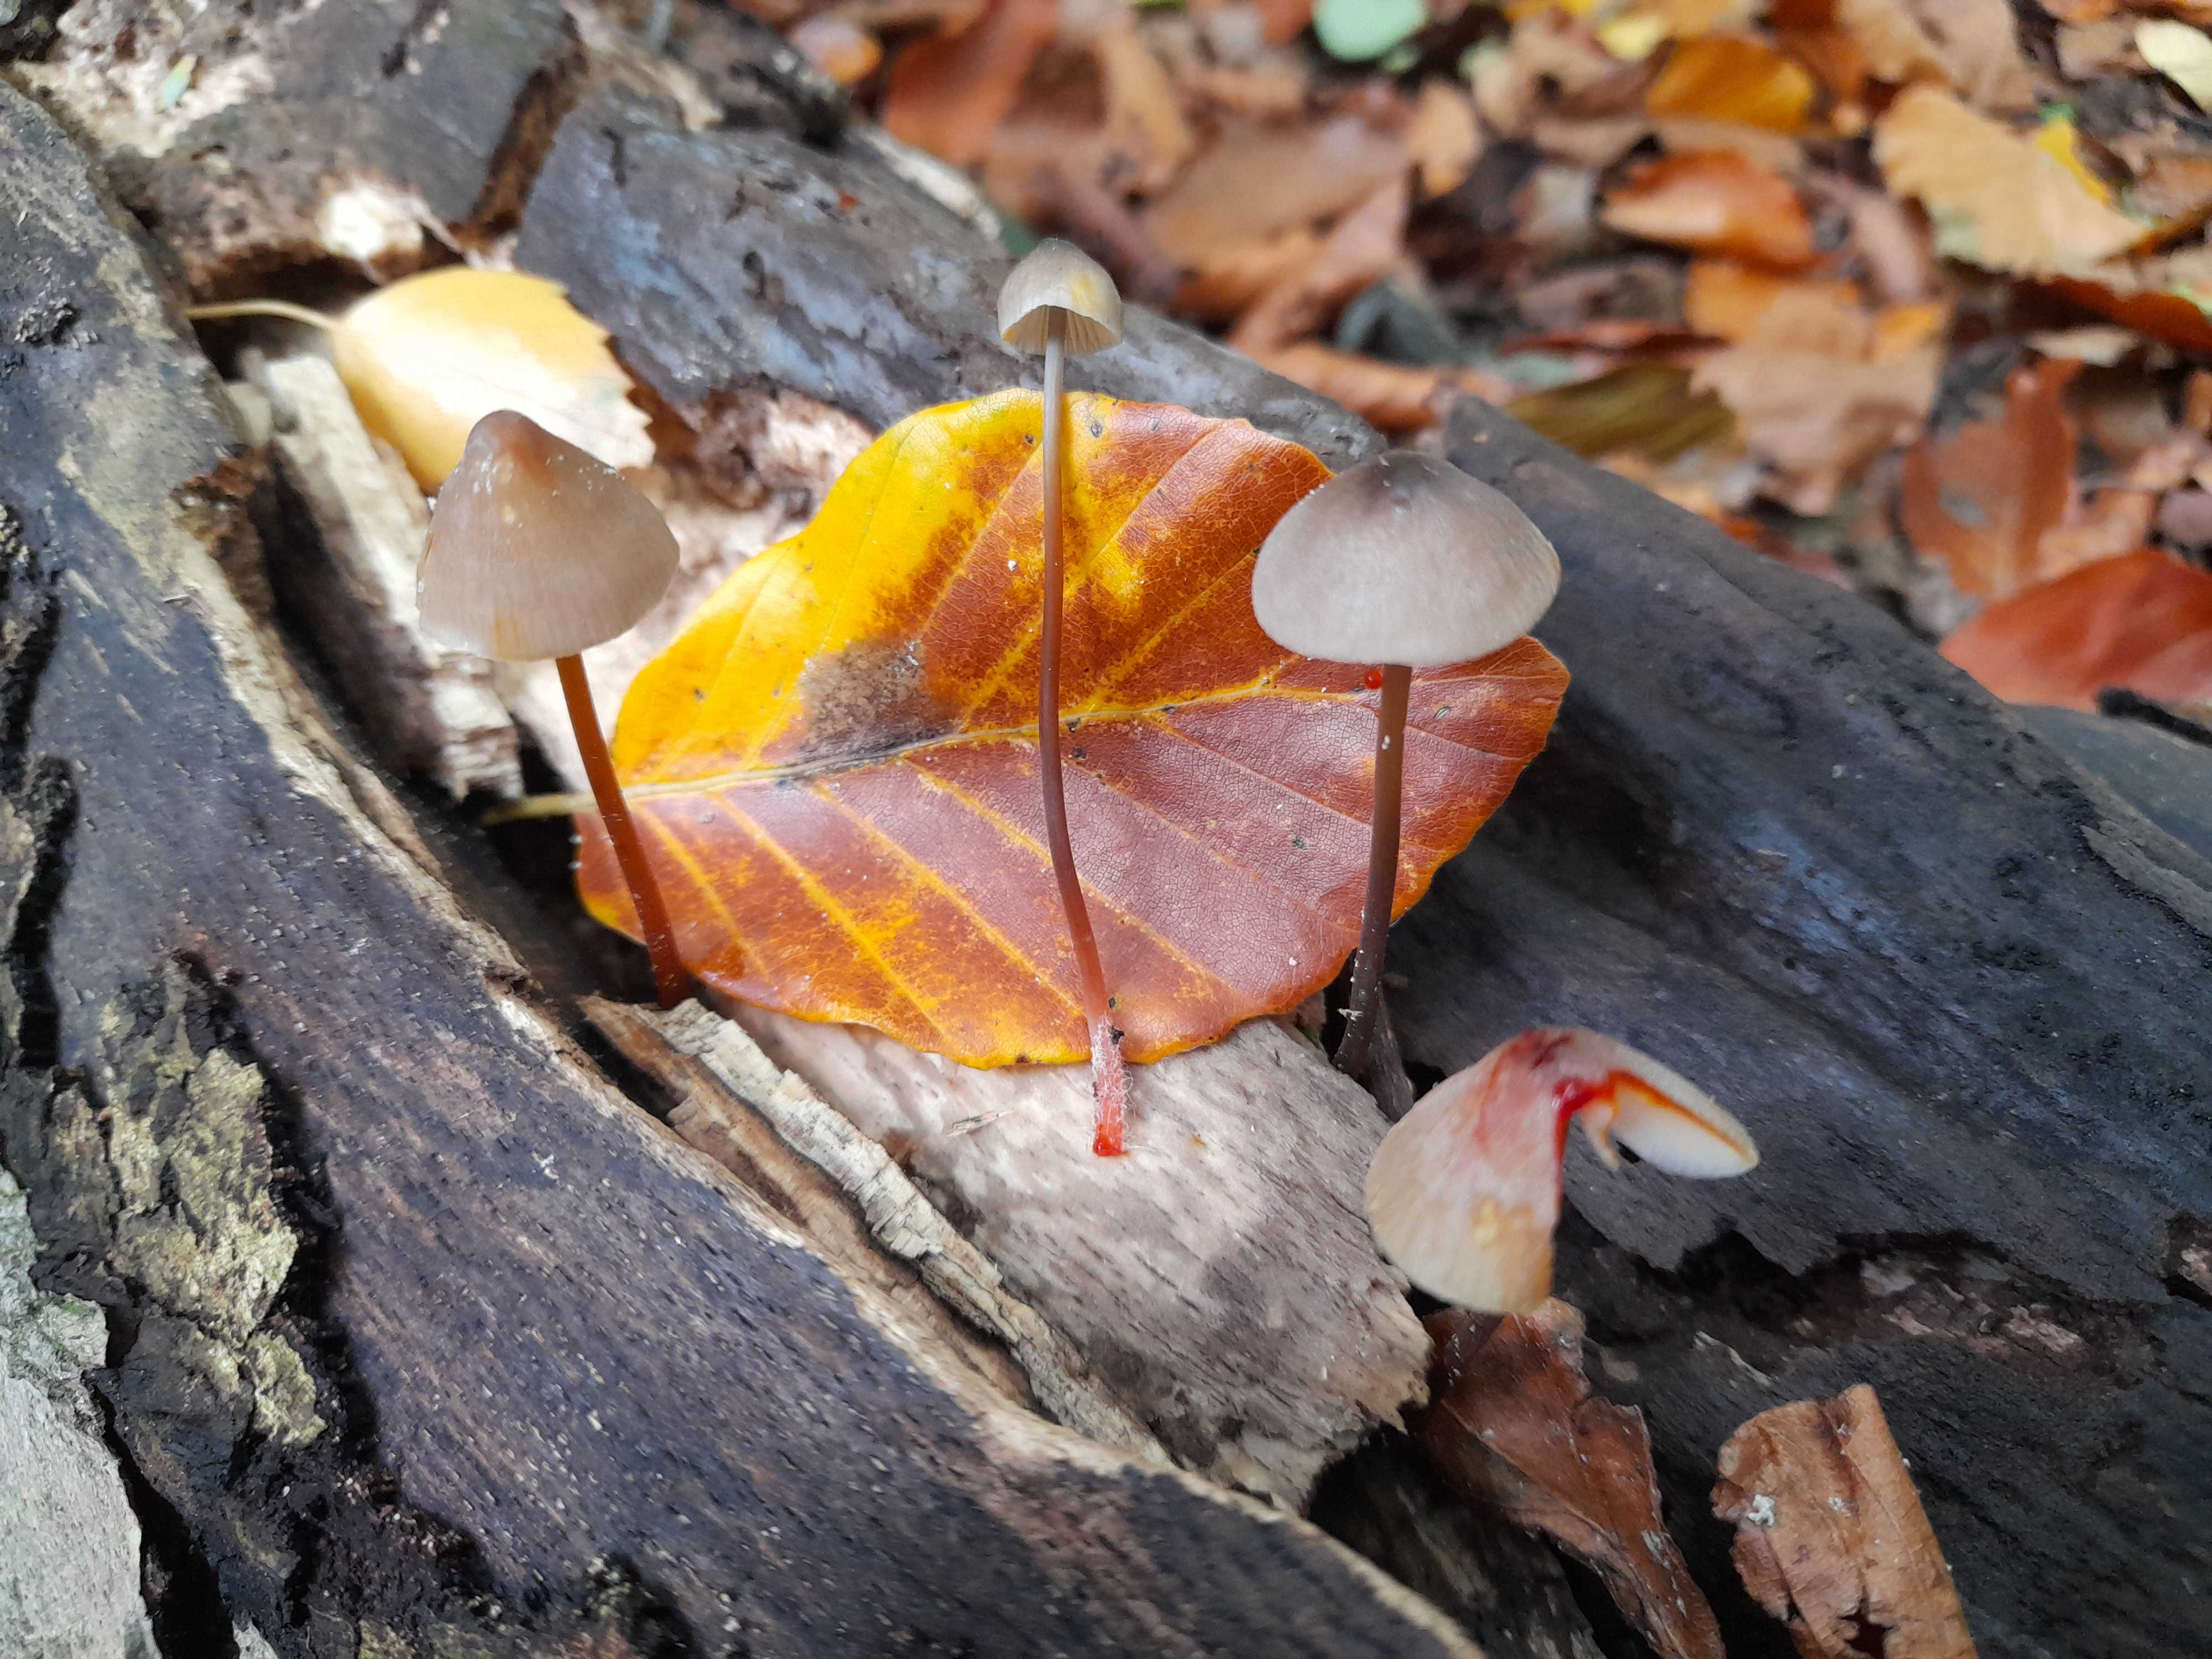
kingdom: Fungi
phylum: Basidiomycota
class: Agaricomycetes
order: Agaricales
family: Mycenaceae
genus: Mycena
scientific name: Mycena crocata
